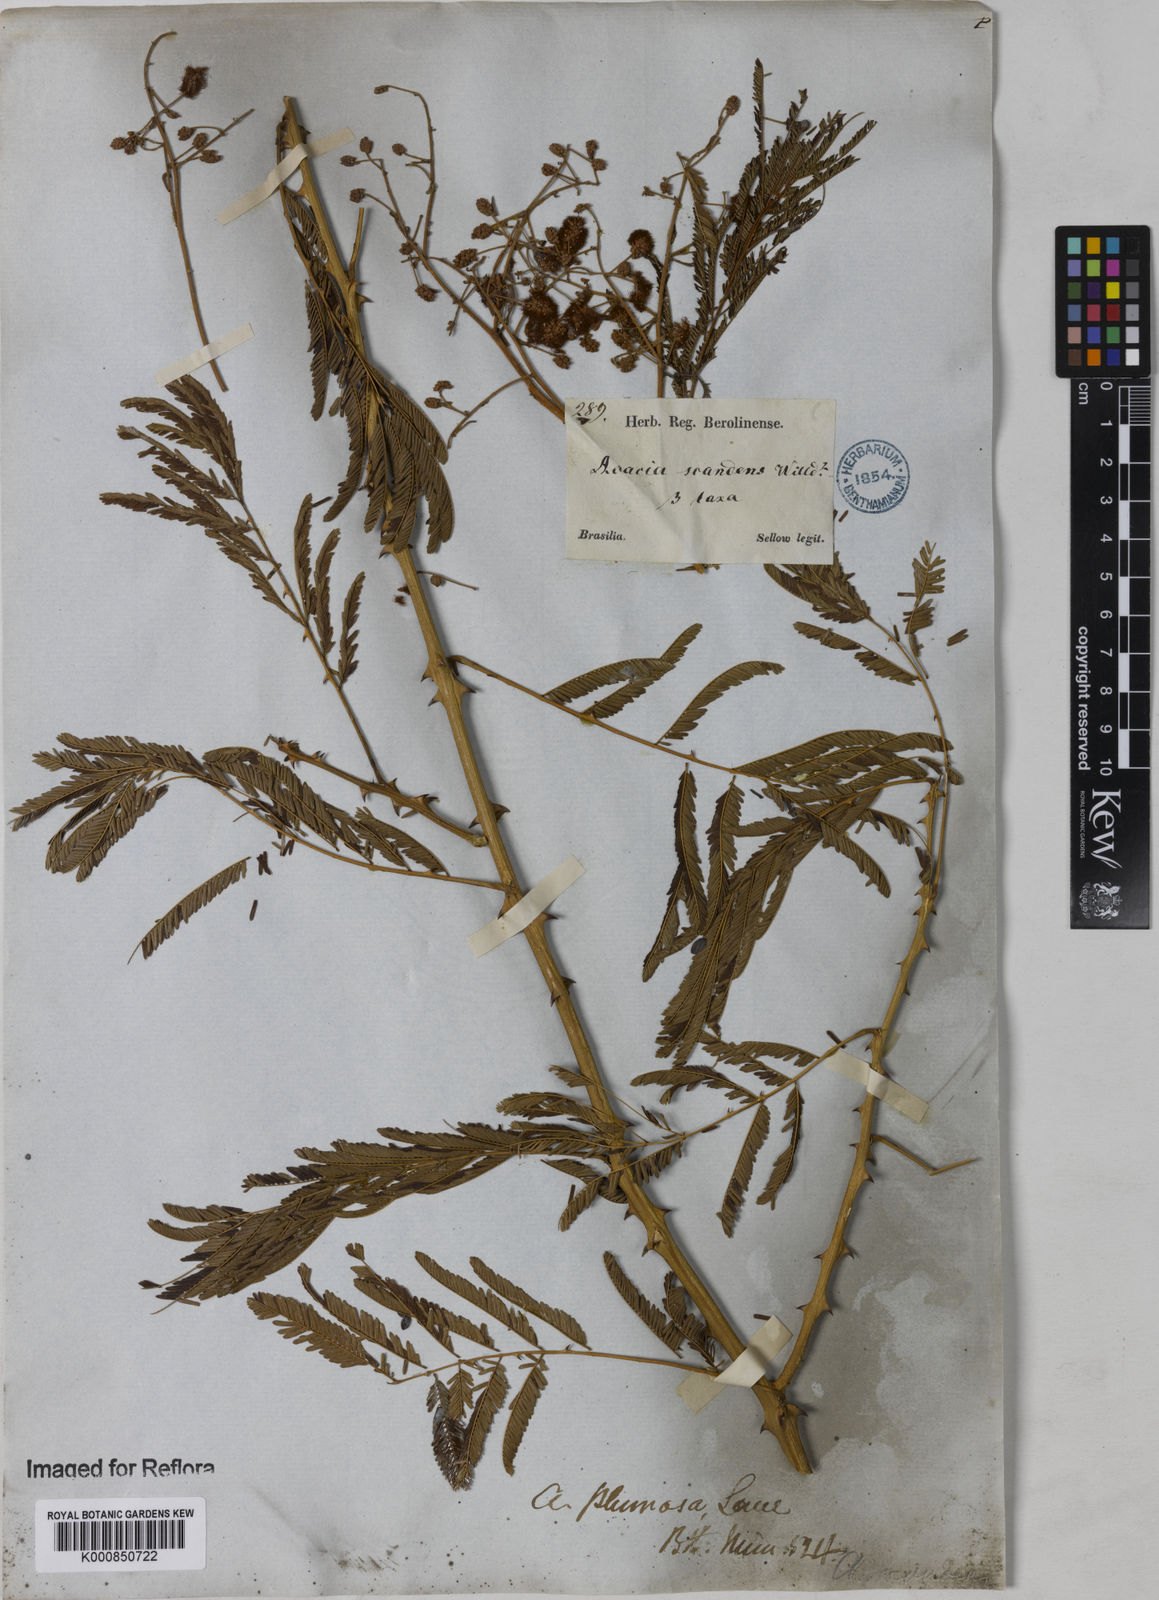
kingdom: Plantae
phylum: Tracheophyta
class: Magnoliopsida
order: Fabales
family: Fabaceae
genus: Senegalia
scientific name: Senegalia lowei
